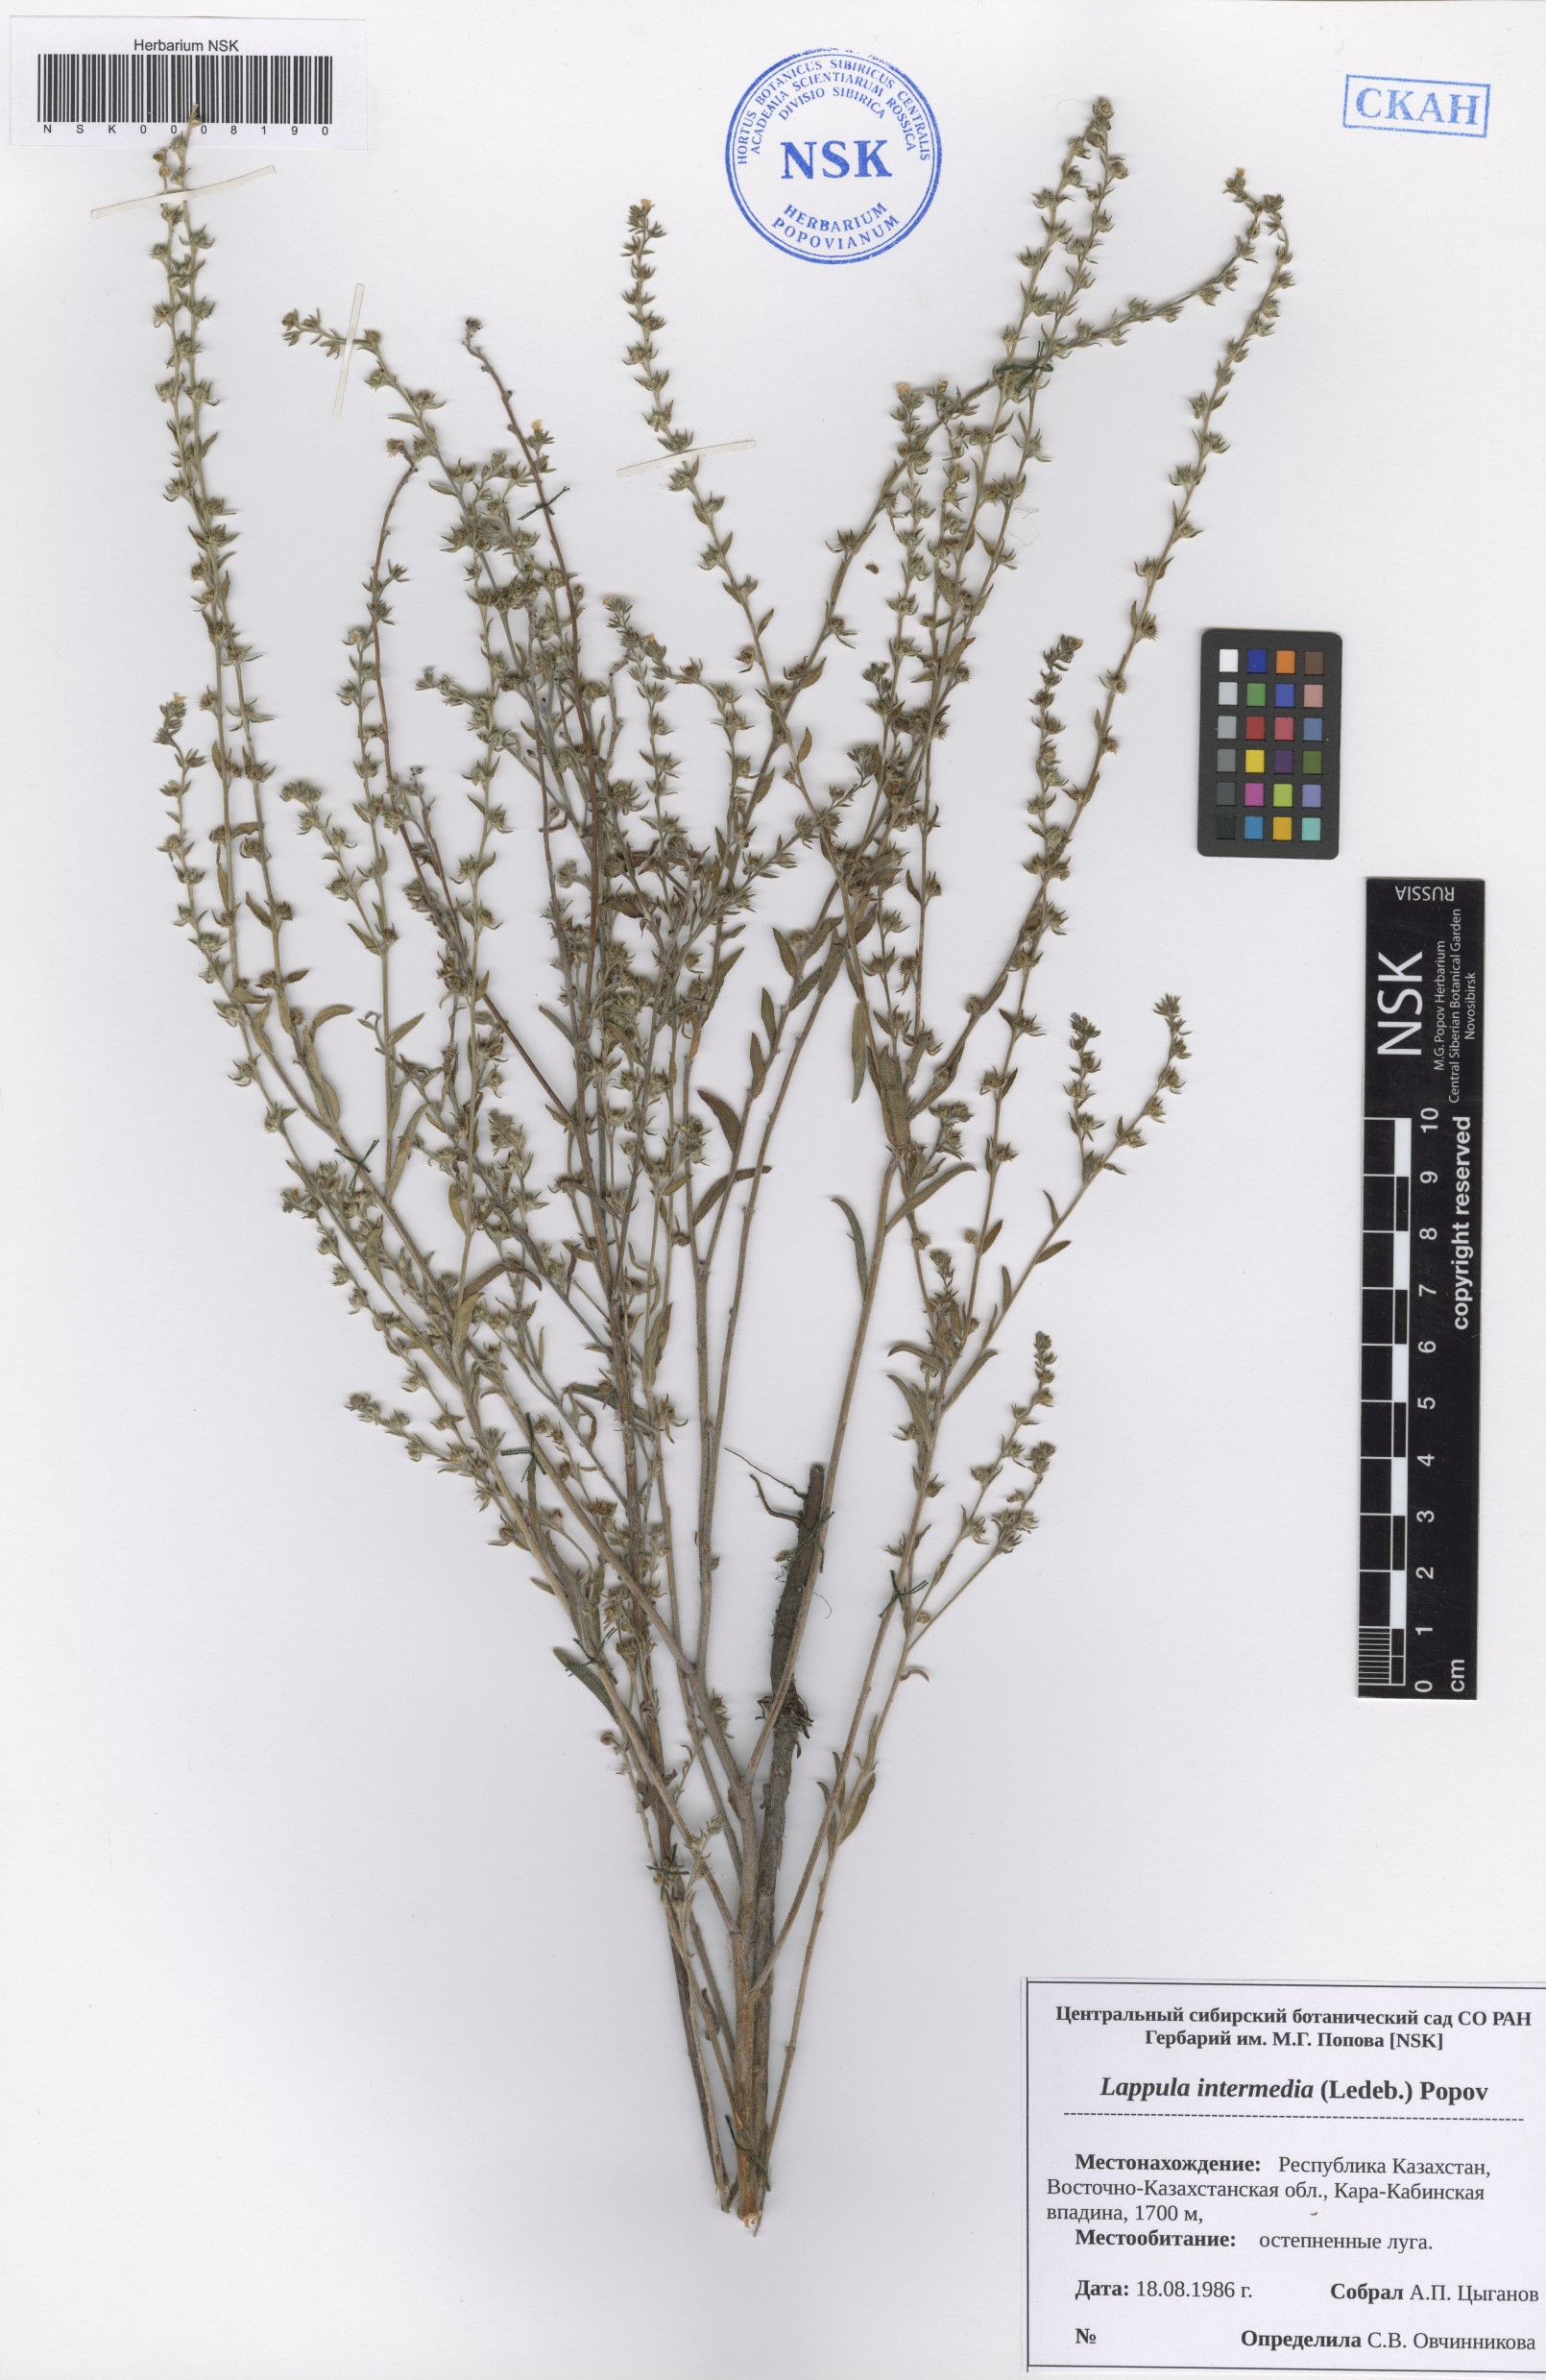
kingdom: Plantae
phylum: Tracheophyta
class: Magnoliopsida
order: Boraginales
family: Boraginaceae
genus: Lappula
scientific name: Lappula intermedia
